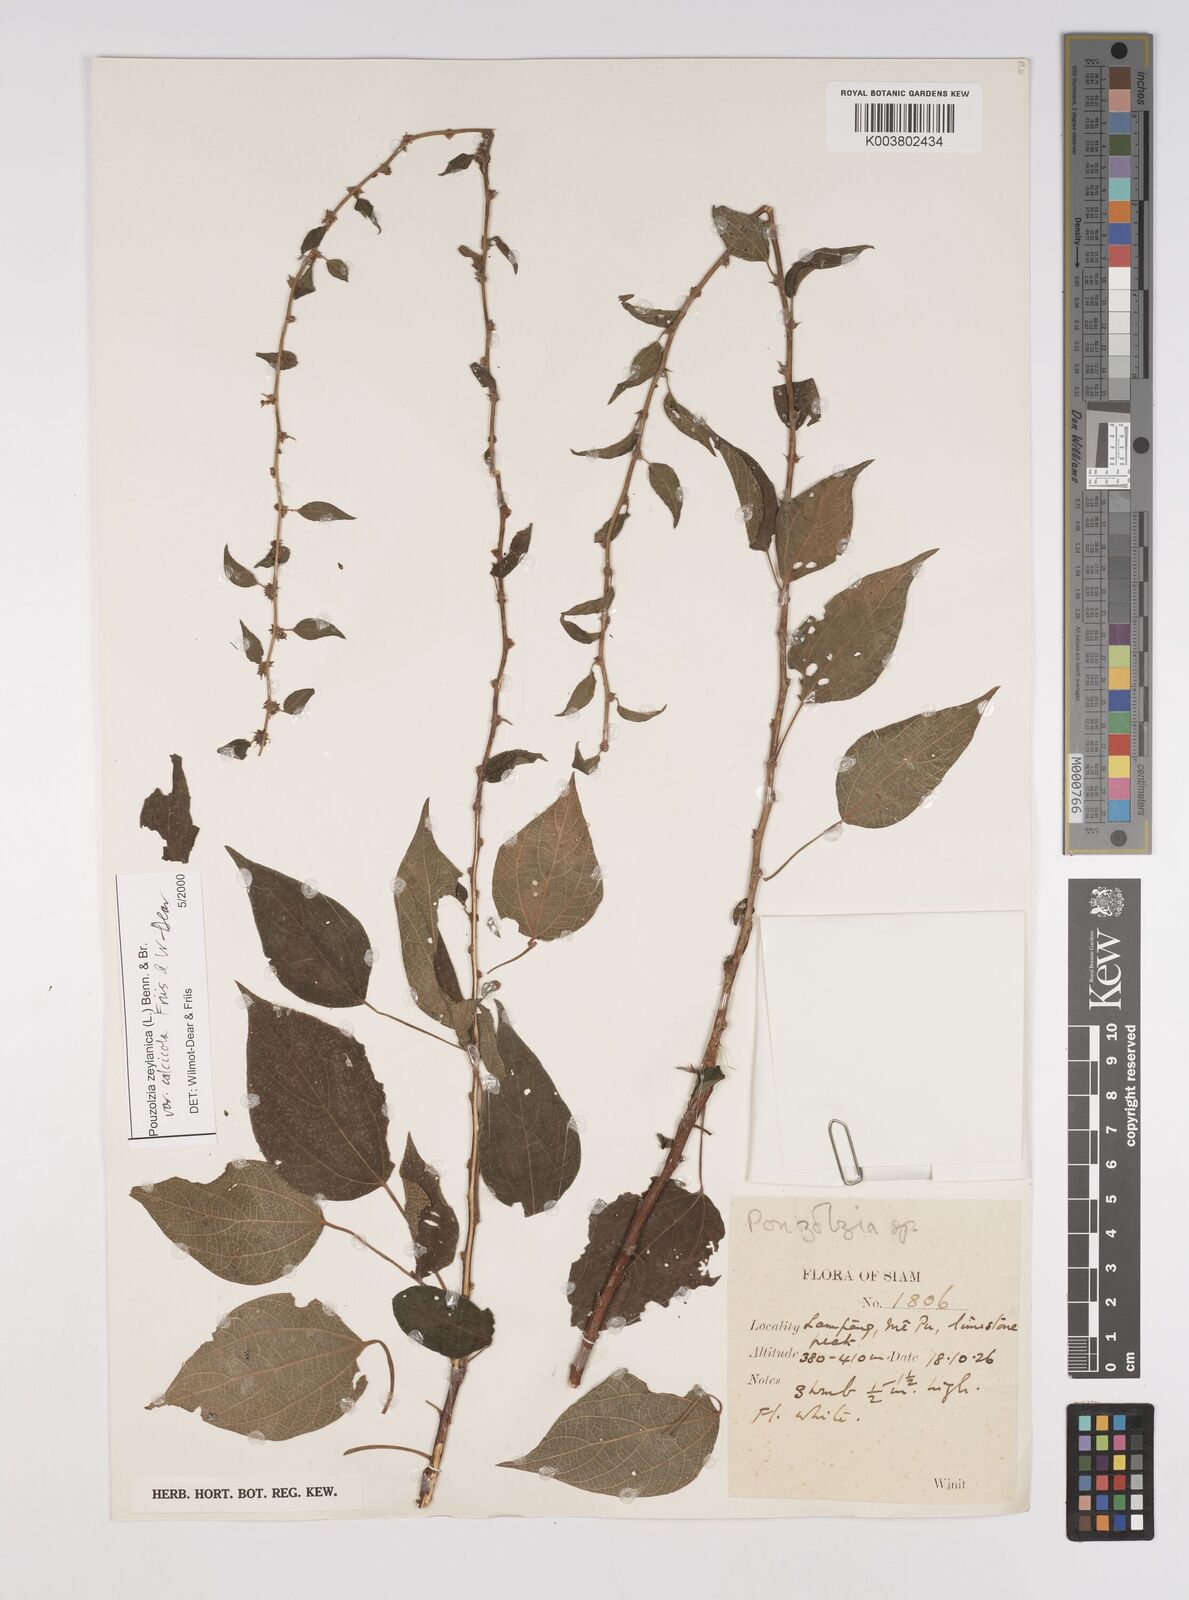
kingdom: Plantae
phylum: Tracheophyta
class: Magnoliopsida
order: Rosales
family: Urticaceae
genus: Pouzolzia
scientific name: Pouzolzia zeylanica
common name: Graceful pouzolzsbush
